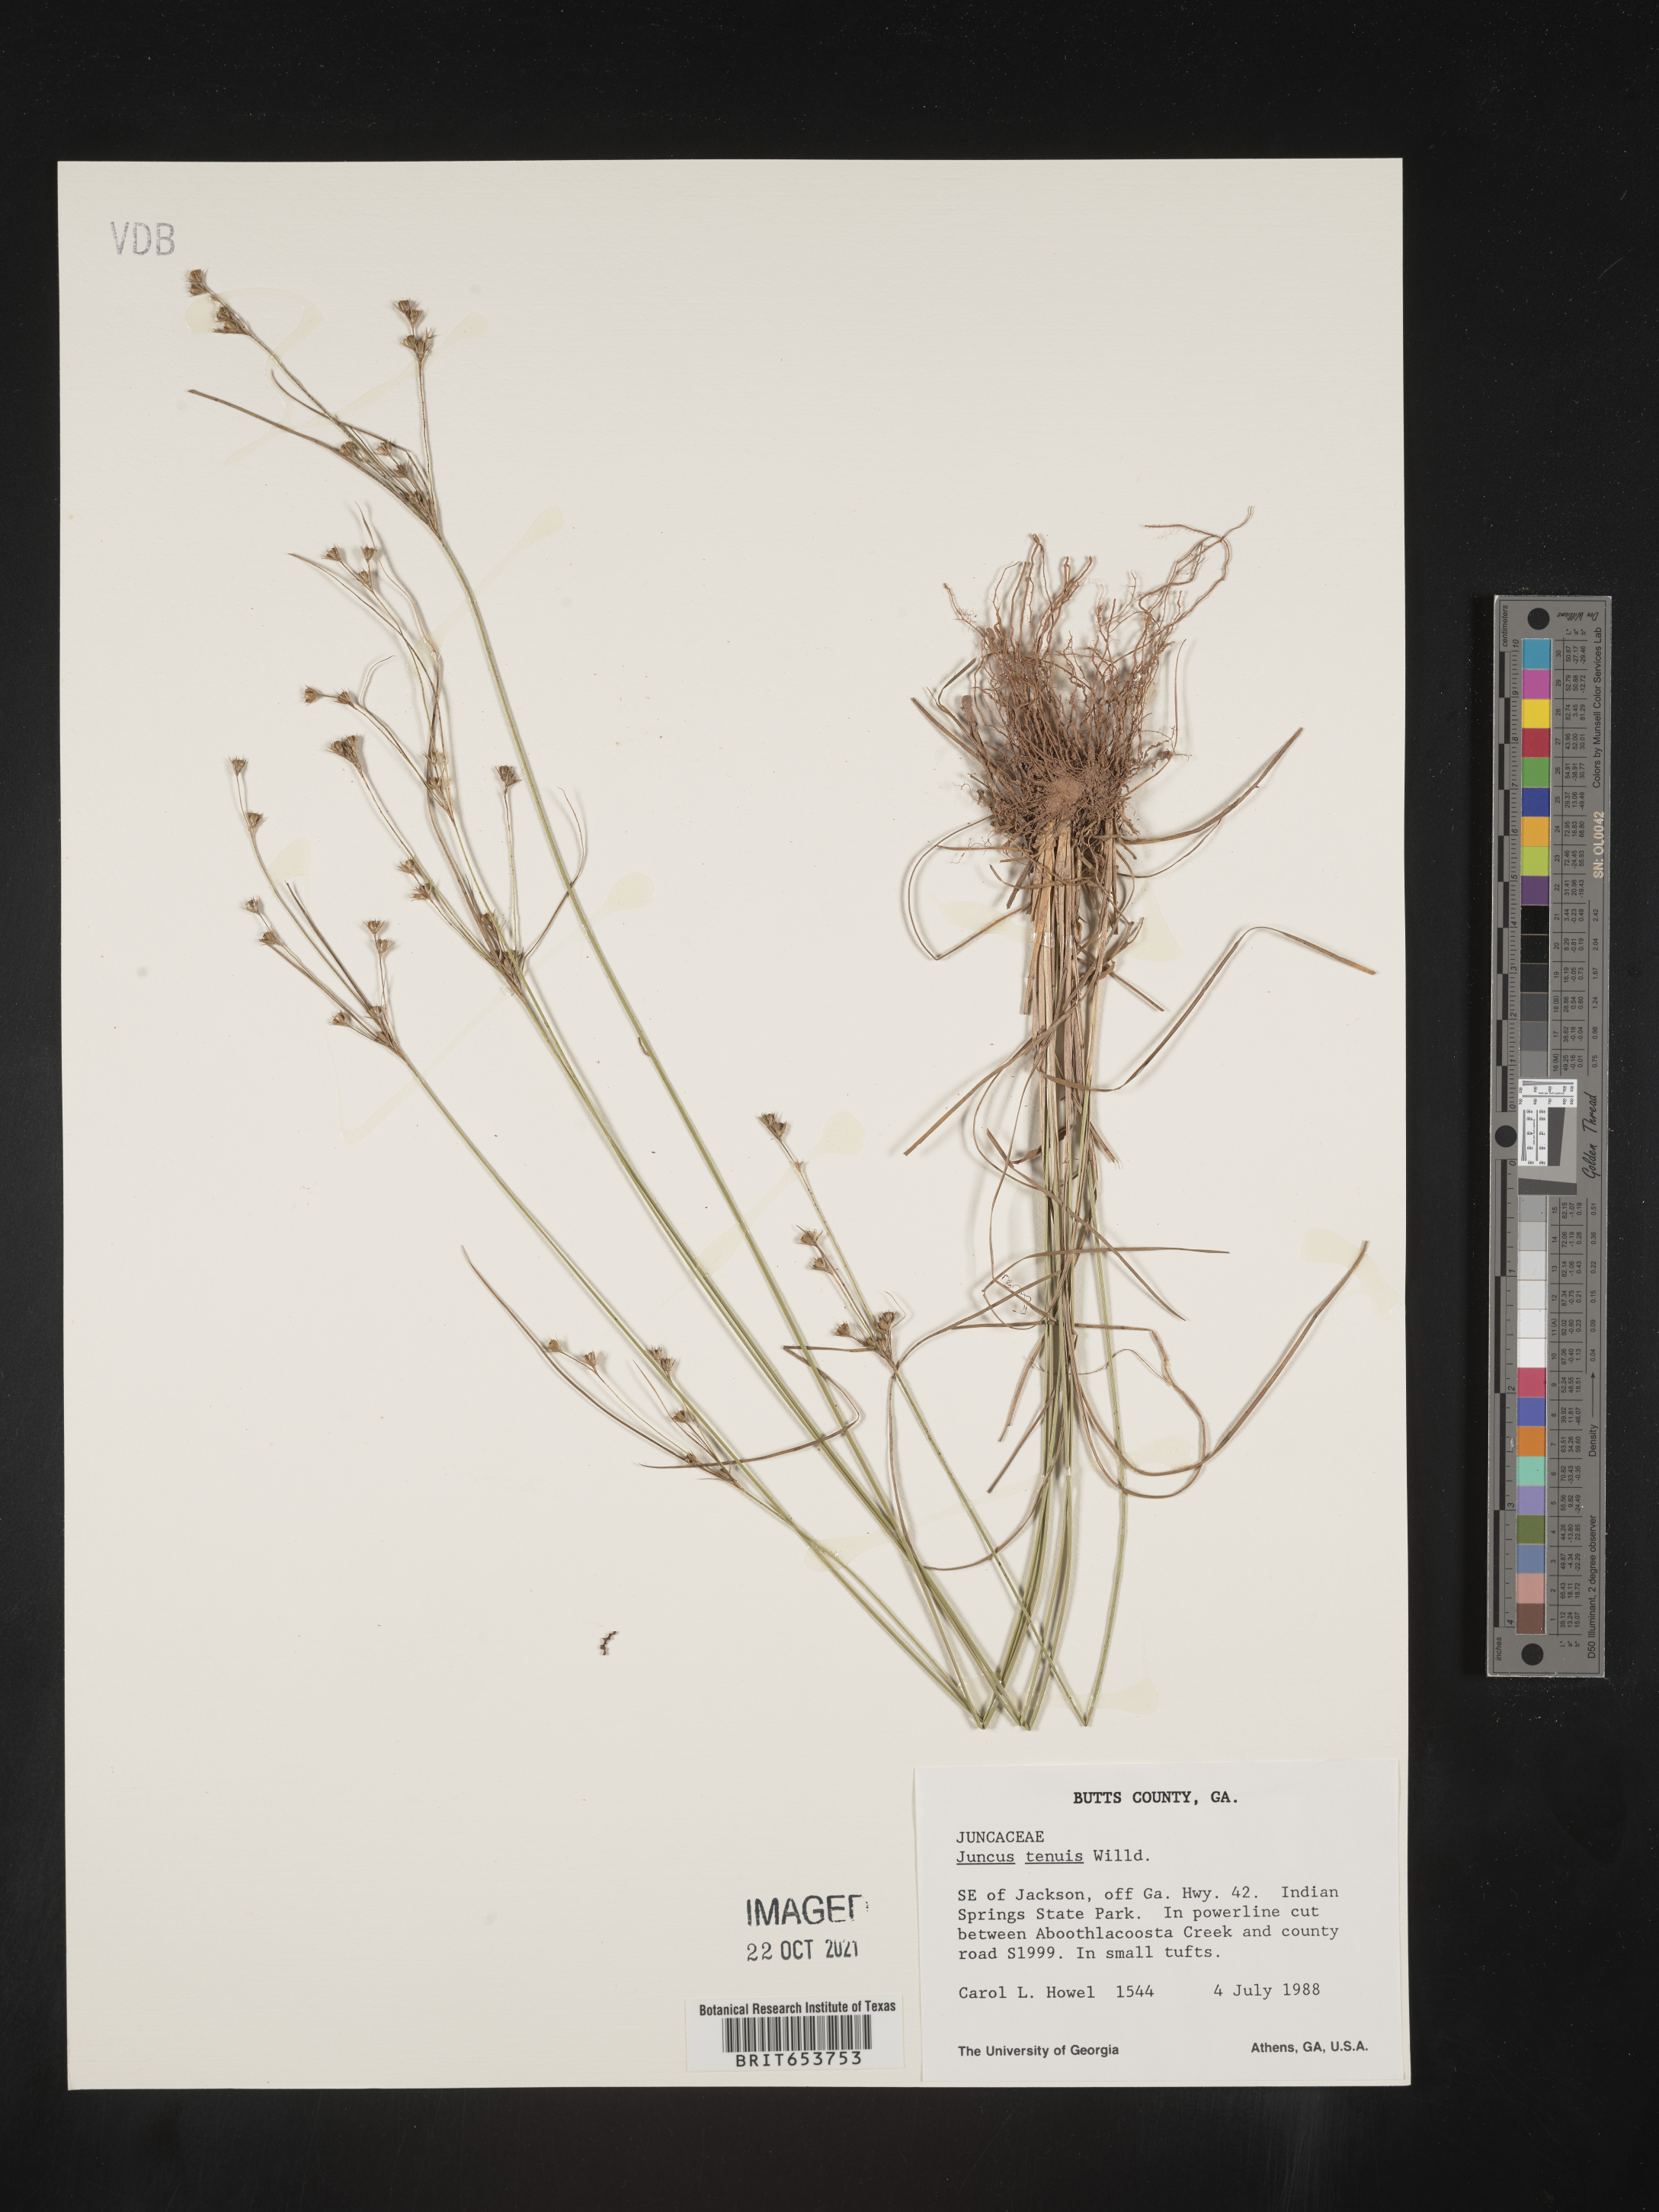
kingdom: Plantae
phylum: Tracheophyta
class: Liliopsida
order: Poales
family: Juncaceae
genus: Juncus
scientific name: Juncus tenuis
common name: Slender rush
